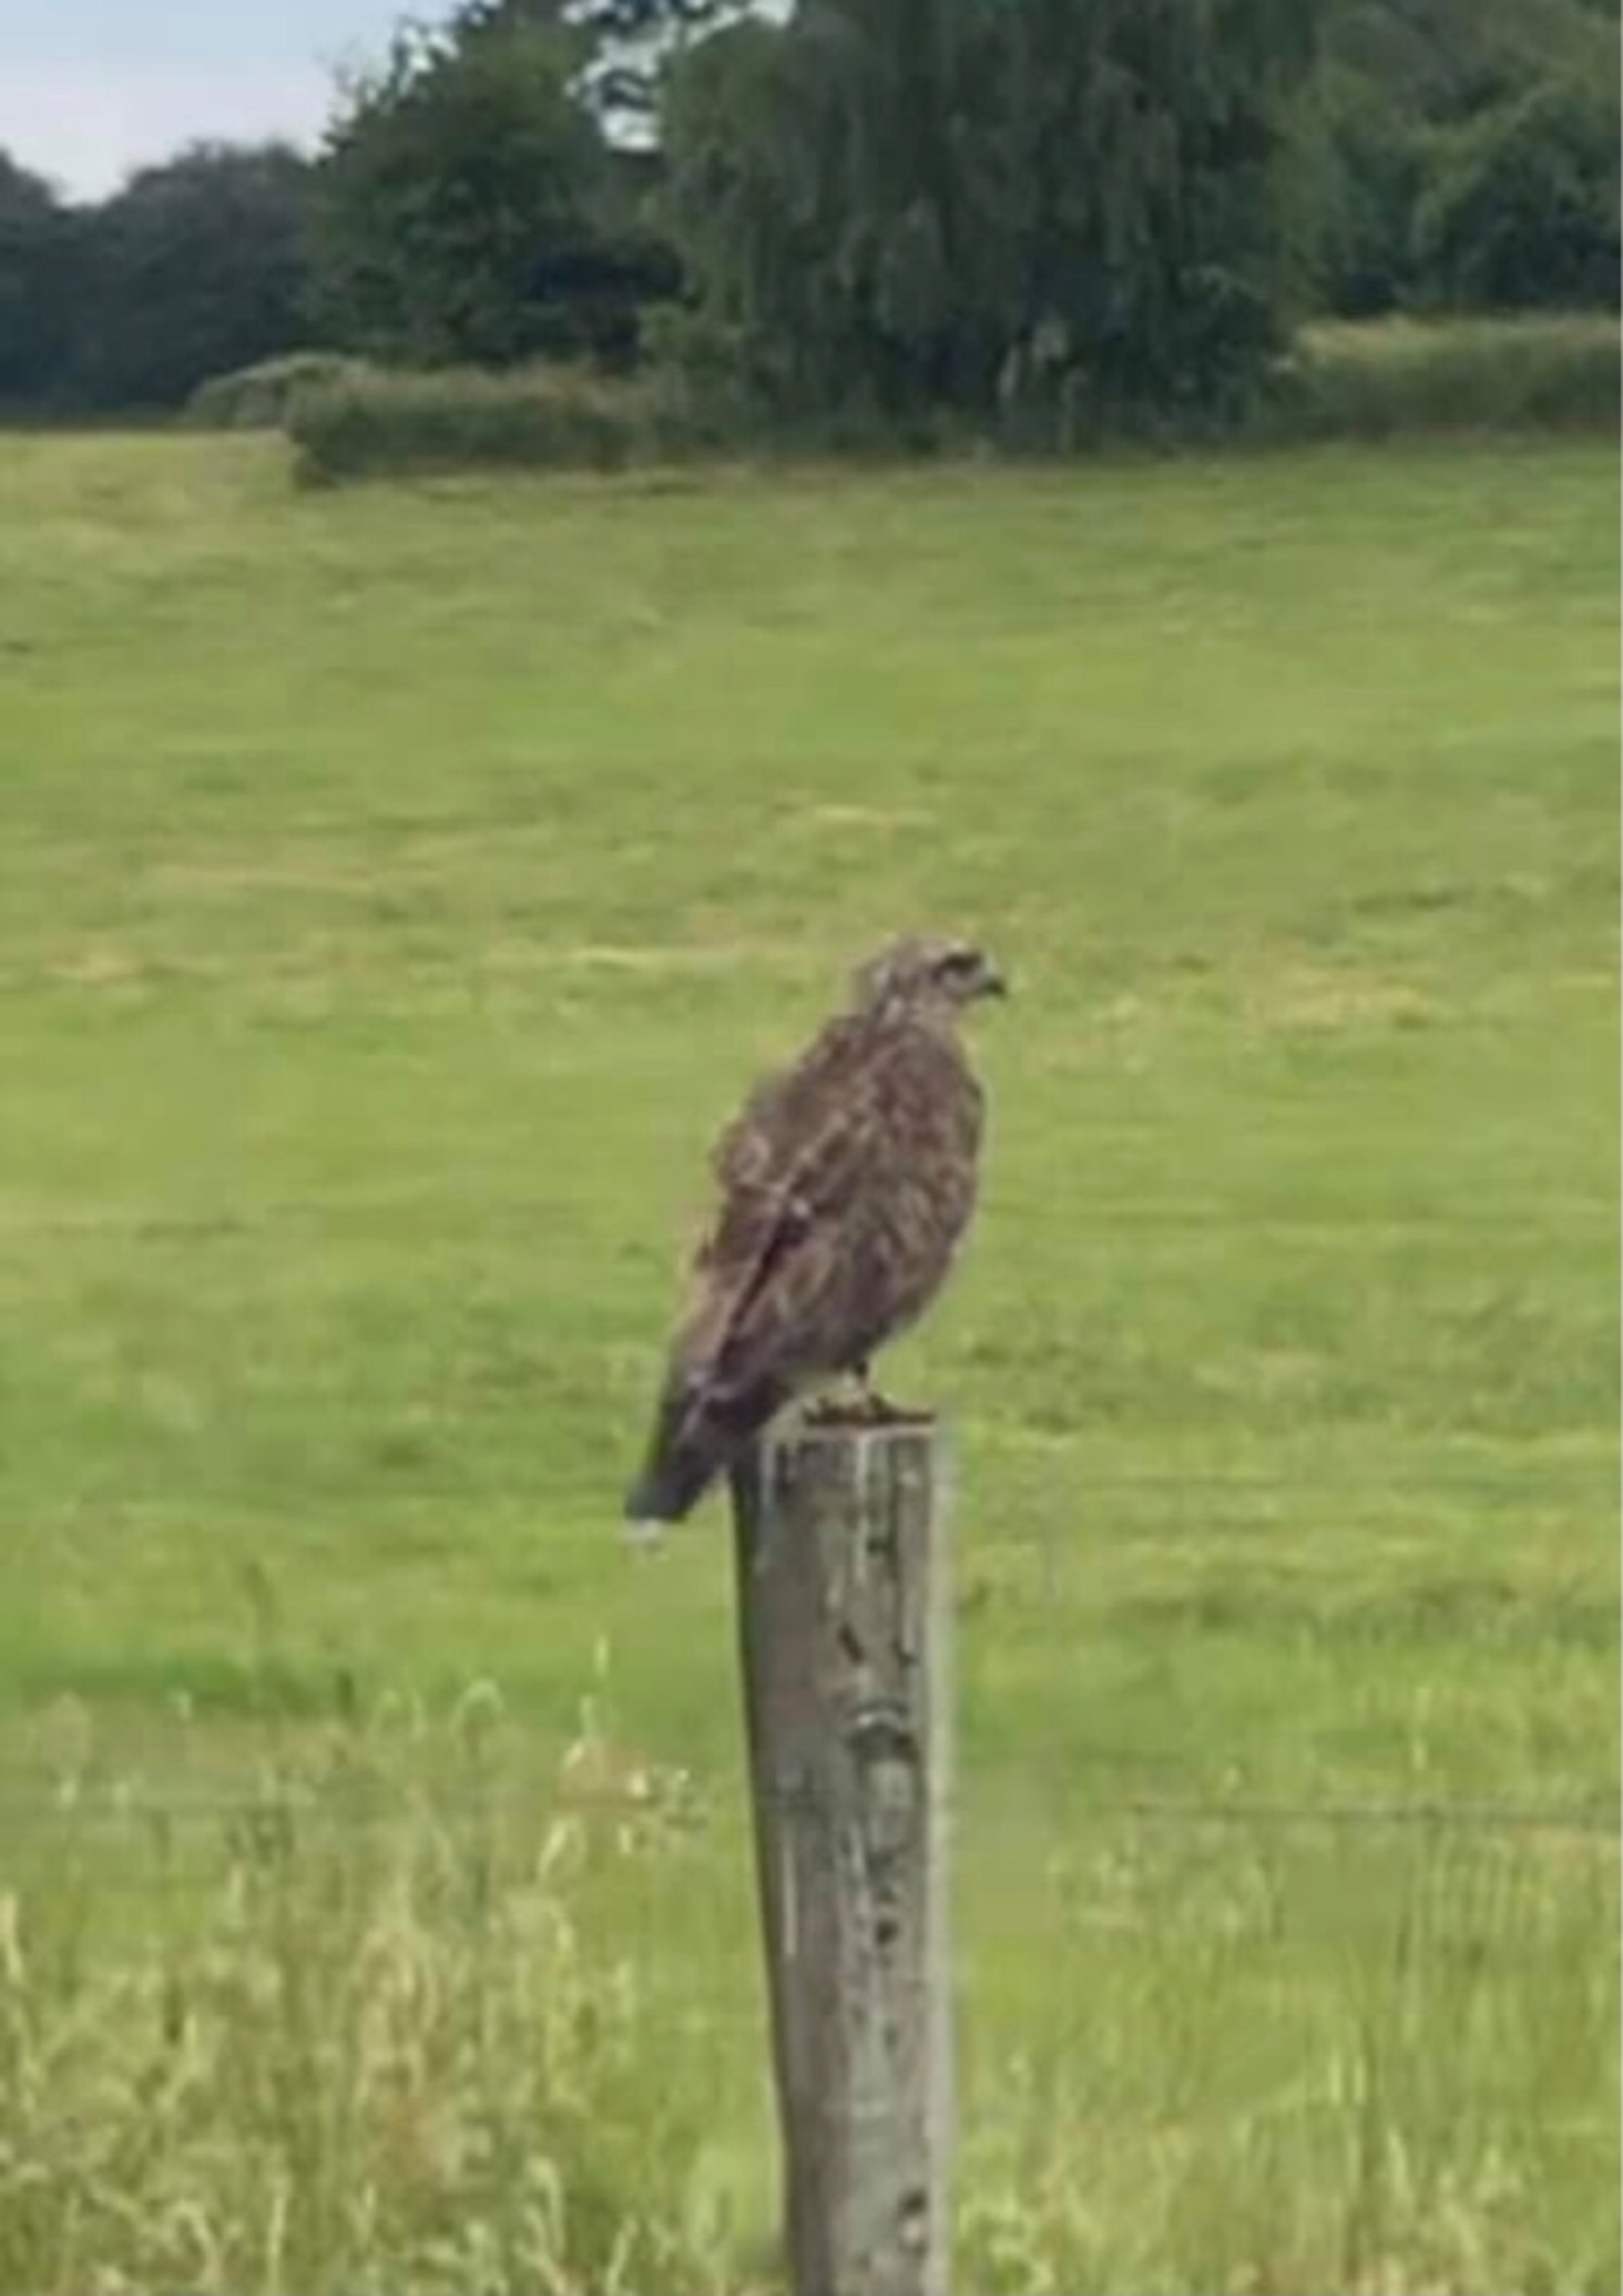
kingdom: Animalia
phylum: Chordata
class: Aves
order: Accipitriformes
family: Accipitridae
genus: Buteo
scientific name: Buteo buteo
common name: Musvåge
